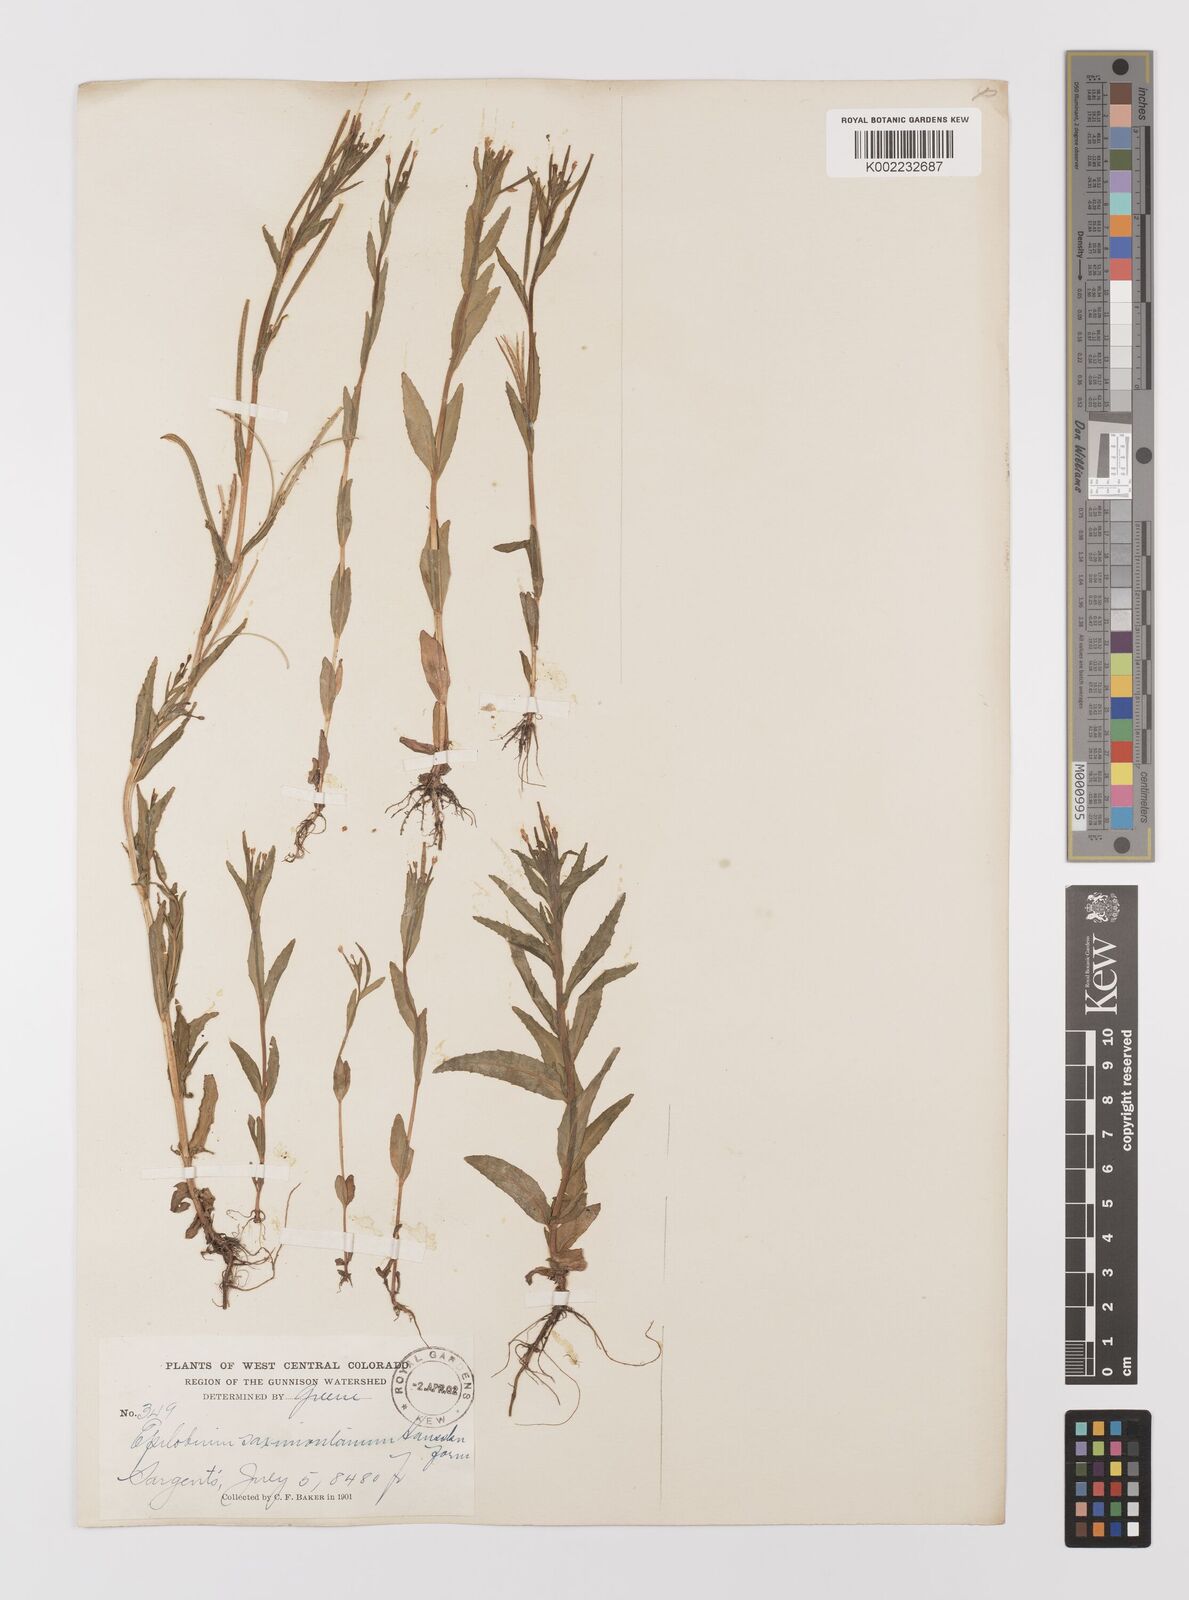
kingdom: Plantae
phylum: Tracheophyta
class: Magnoliopsida
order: Myrtales
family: Onagraceae
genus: Epilobium
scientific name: Epilobium saximontanum
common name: Rocky mountain willowherb
